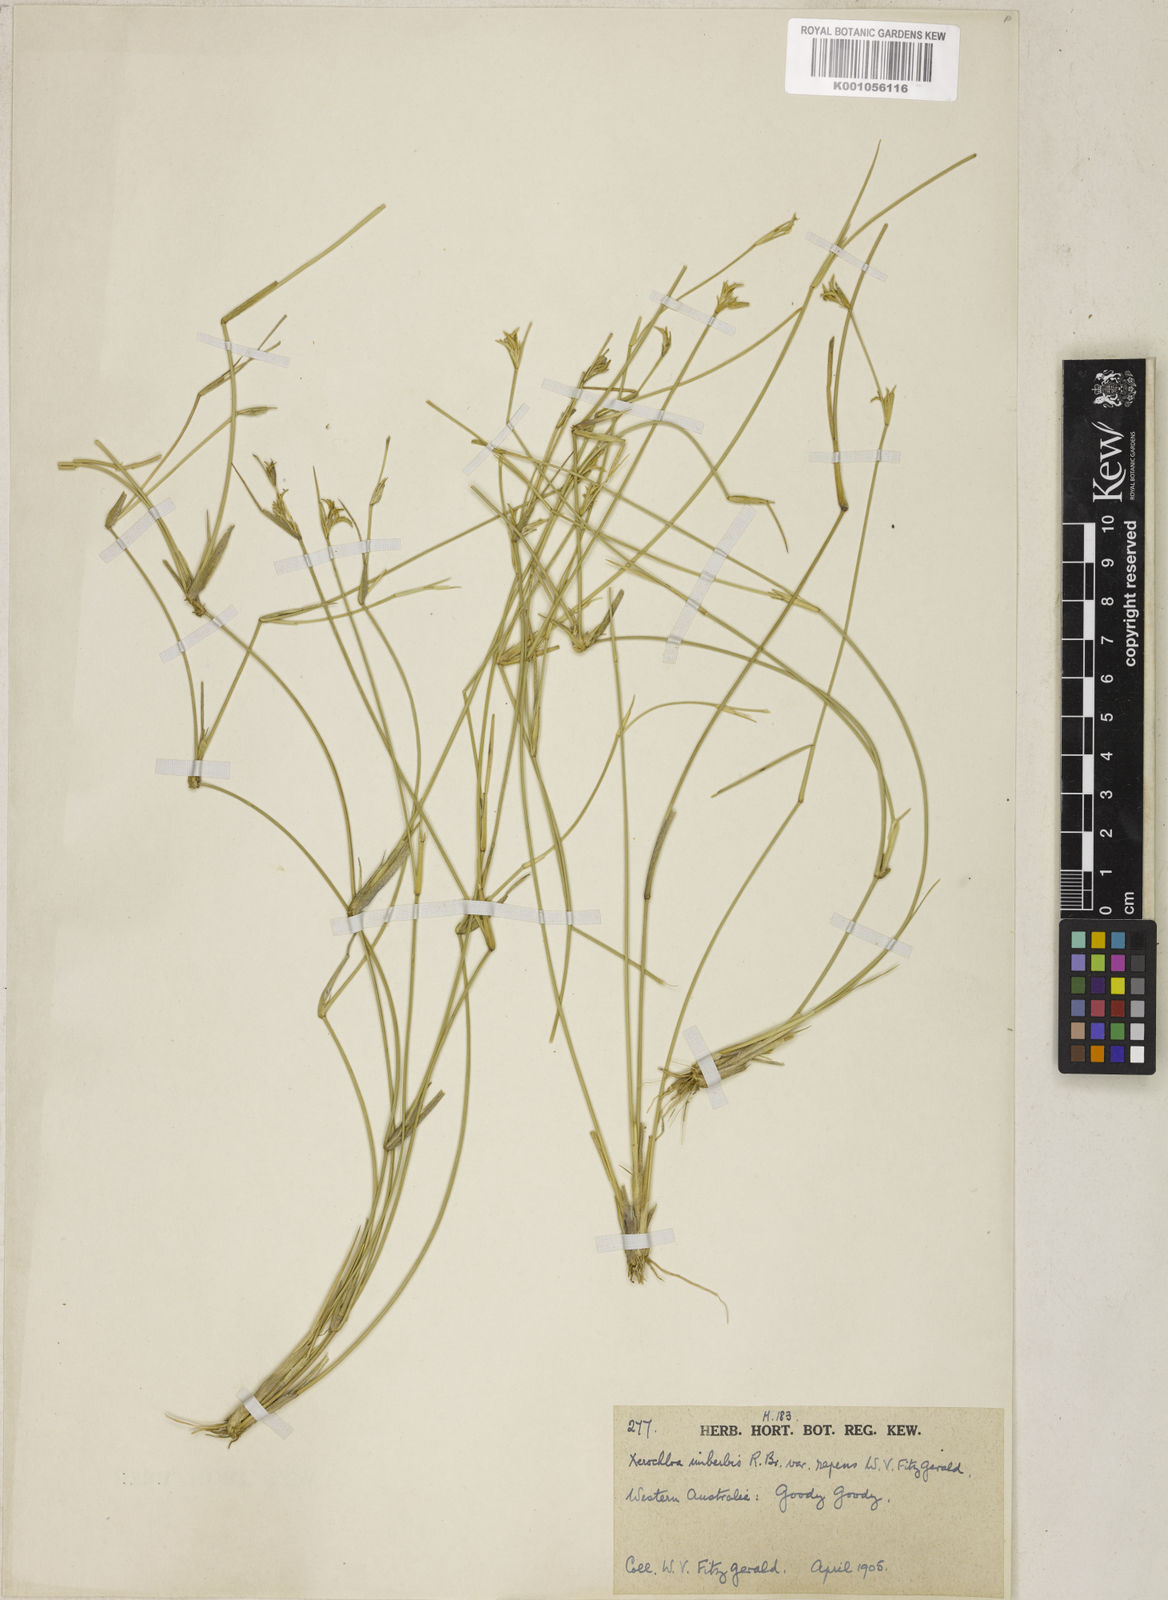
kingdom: Plantae
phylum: Tracheophyta
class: Liliopsida
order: Poales
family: Poaceae
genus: Xerochloa
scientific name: Xerochloa imberbis
